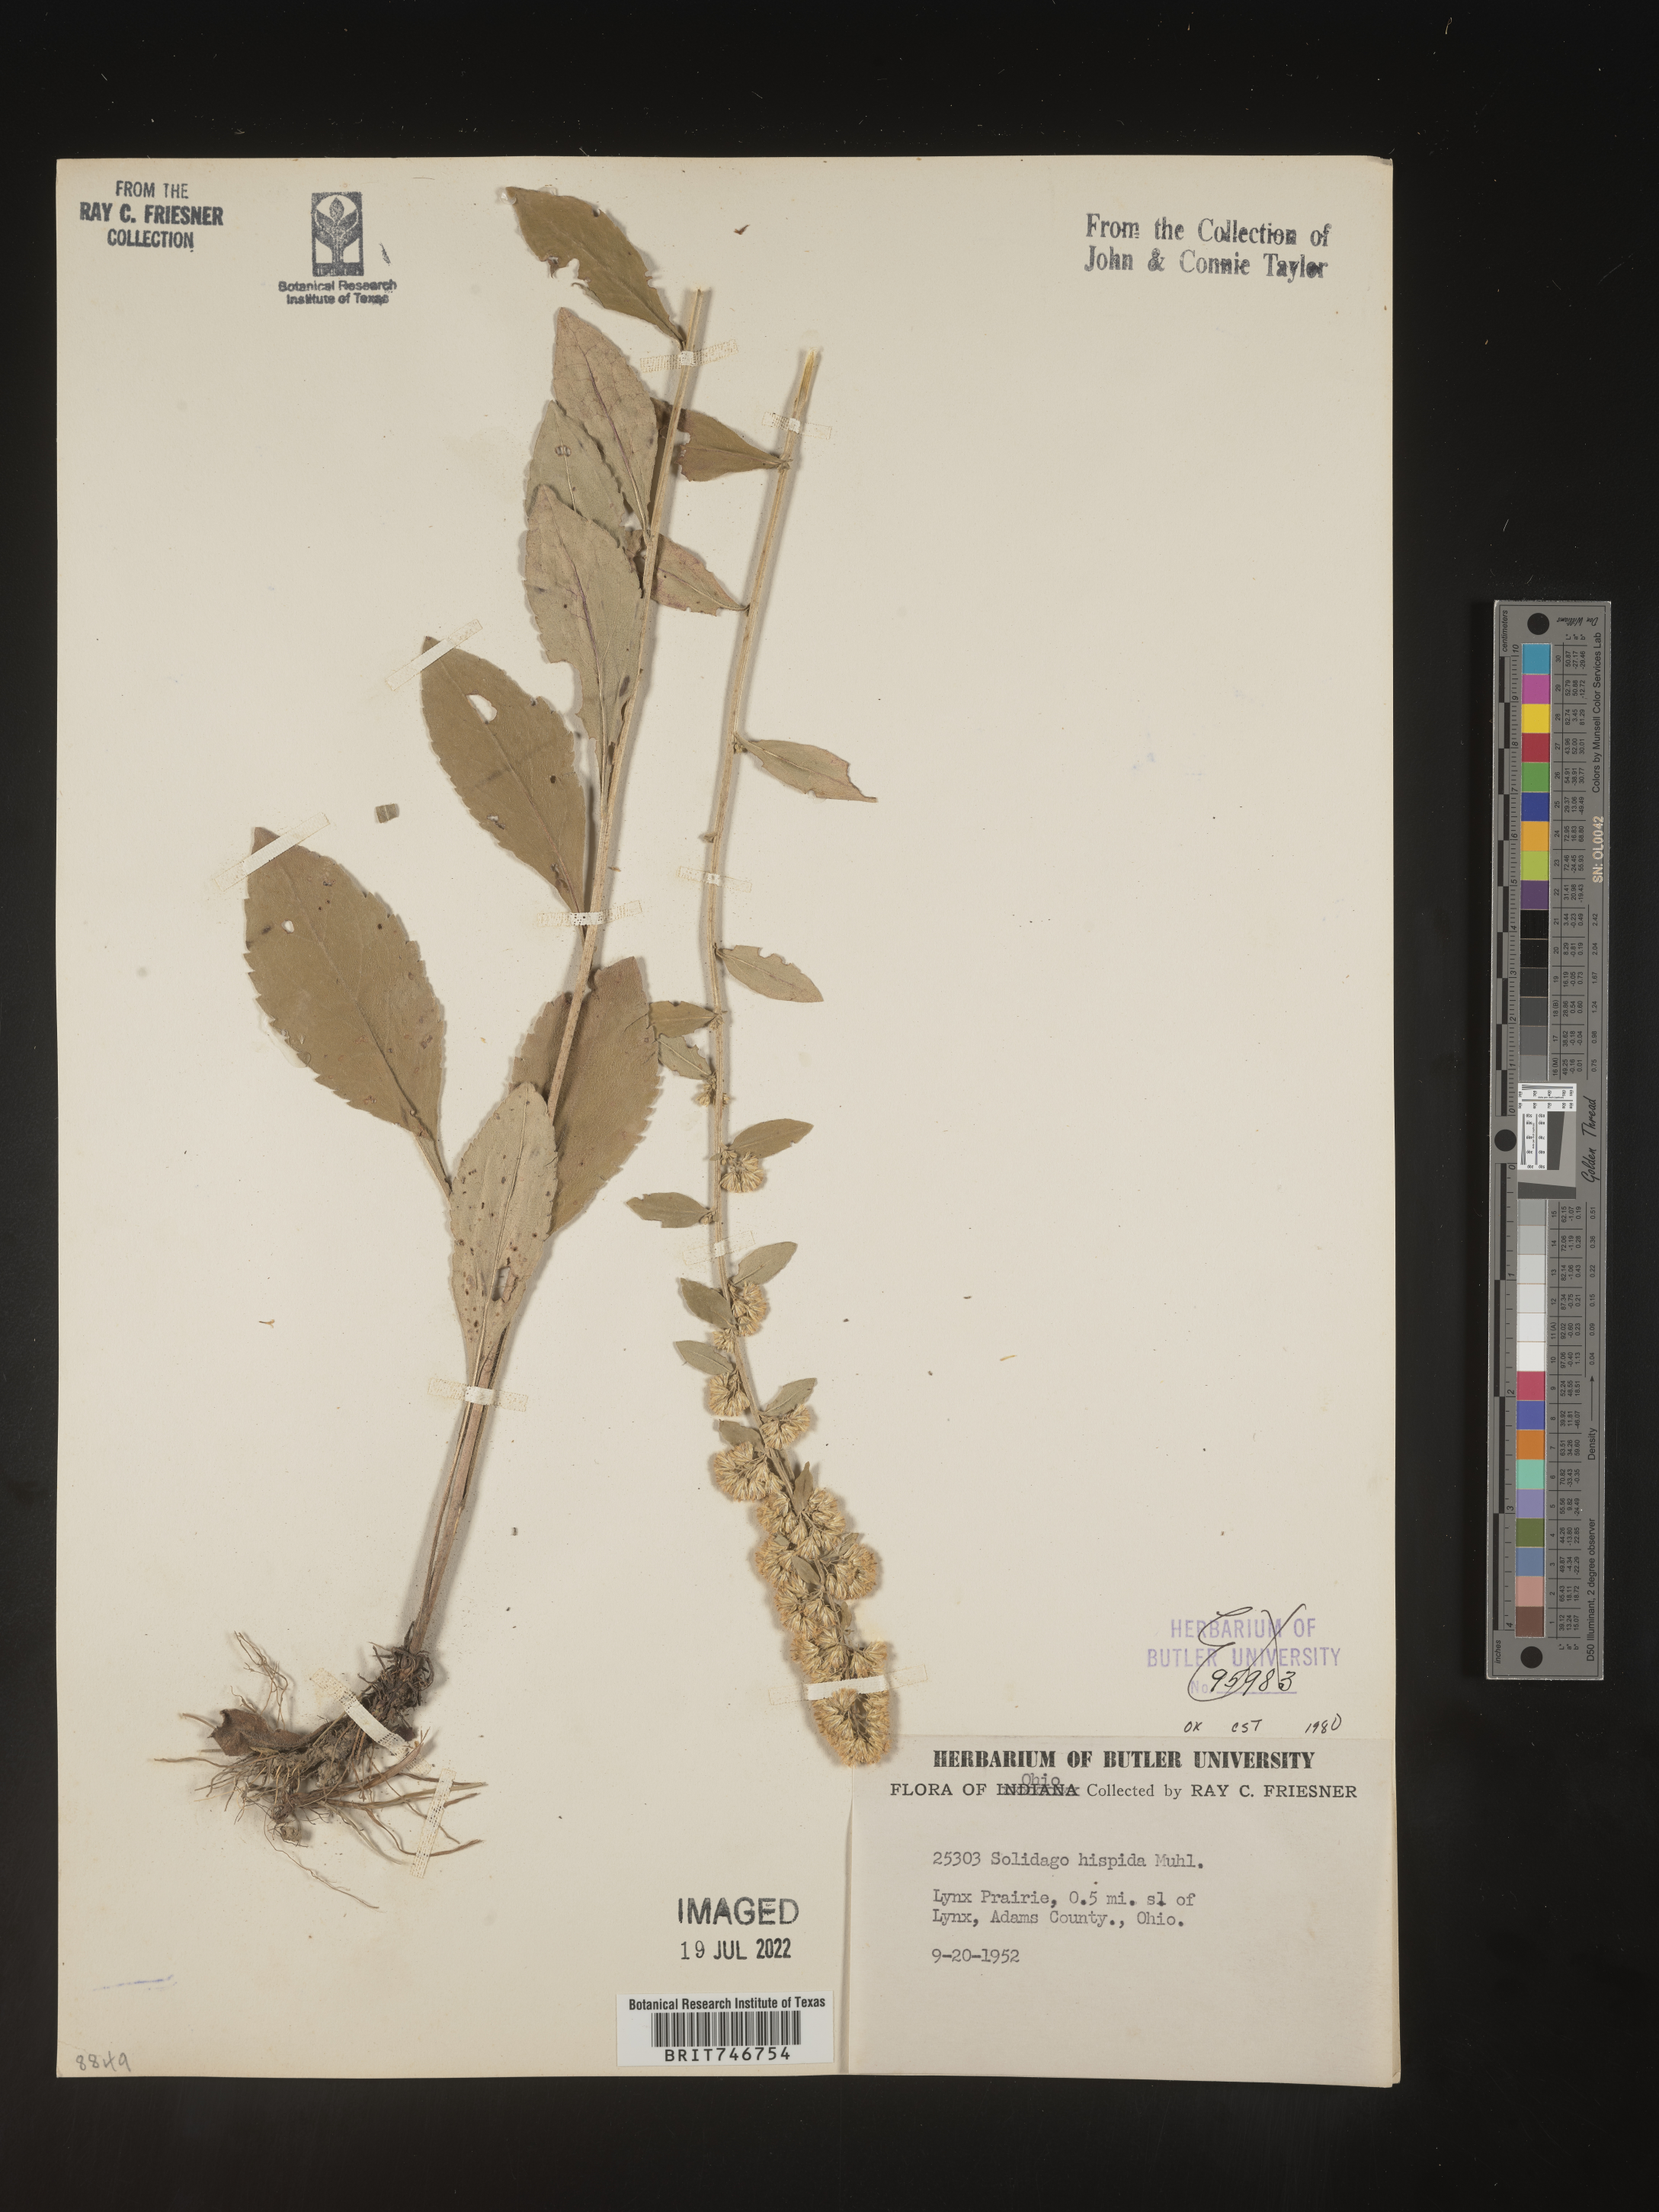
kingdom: Plantae
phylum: Tracheophyta
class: Magnoliopsida
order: Asterales
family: Asteraceae
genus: Solidago
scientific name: Solidago hispida
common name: Hairy goldenrod
